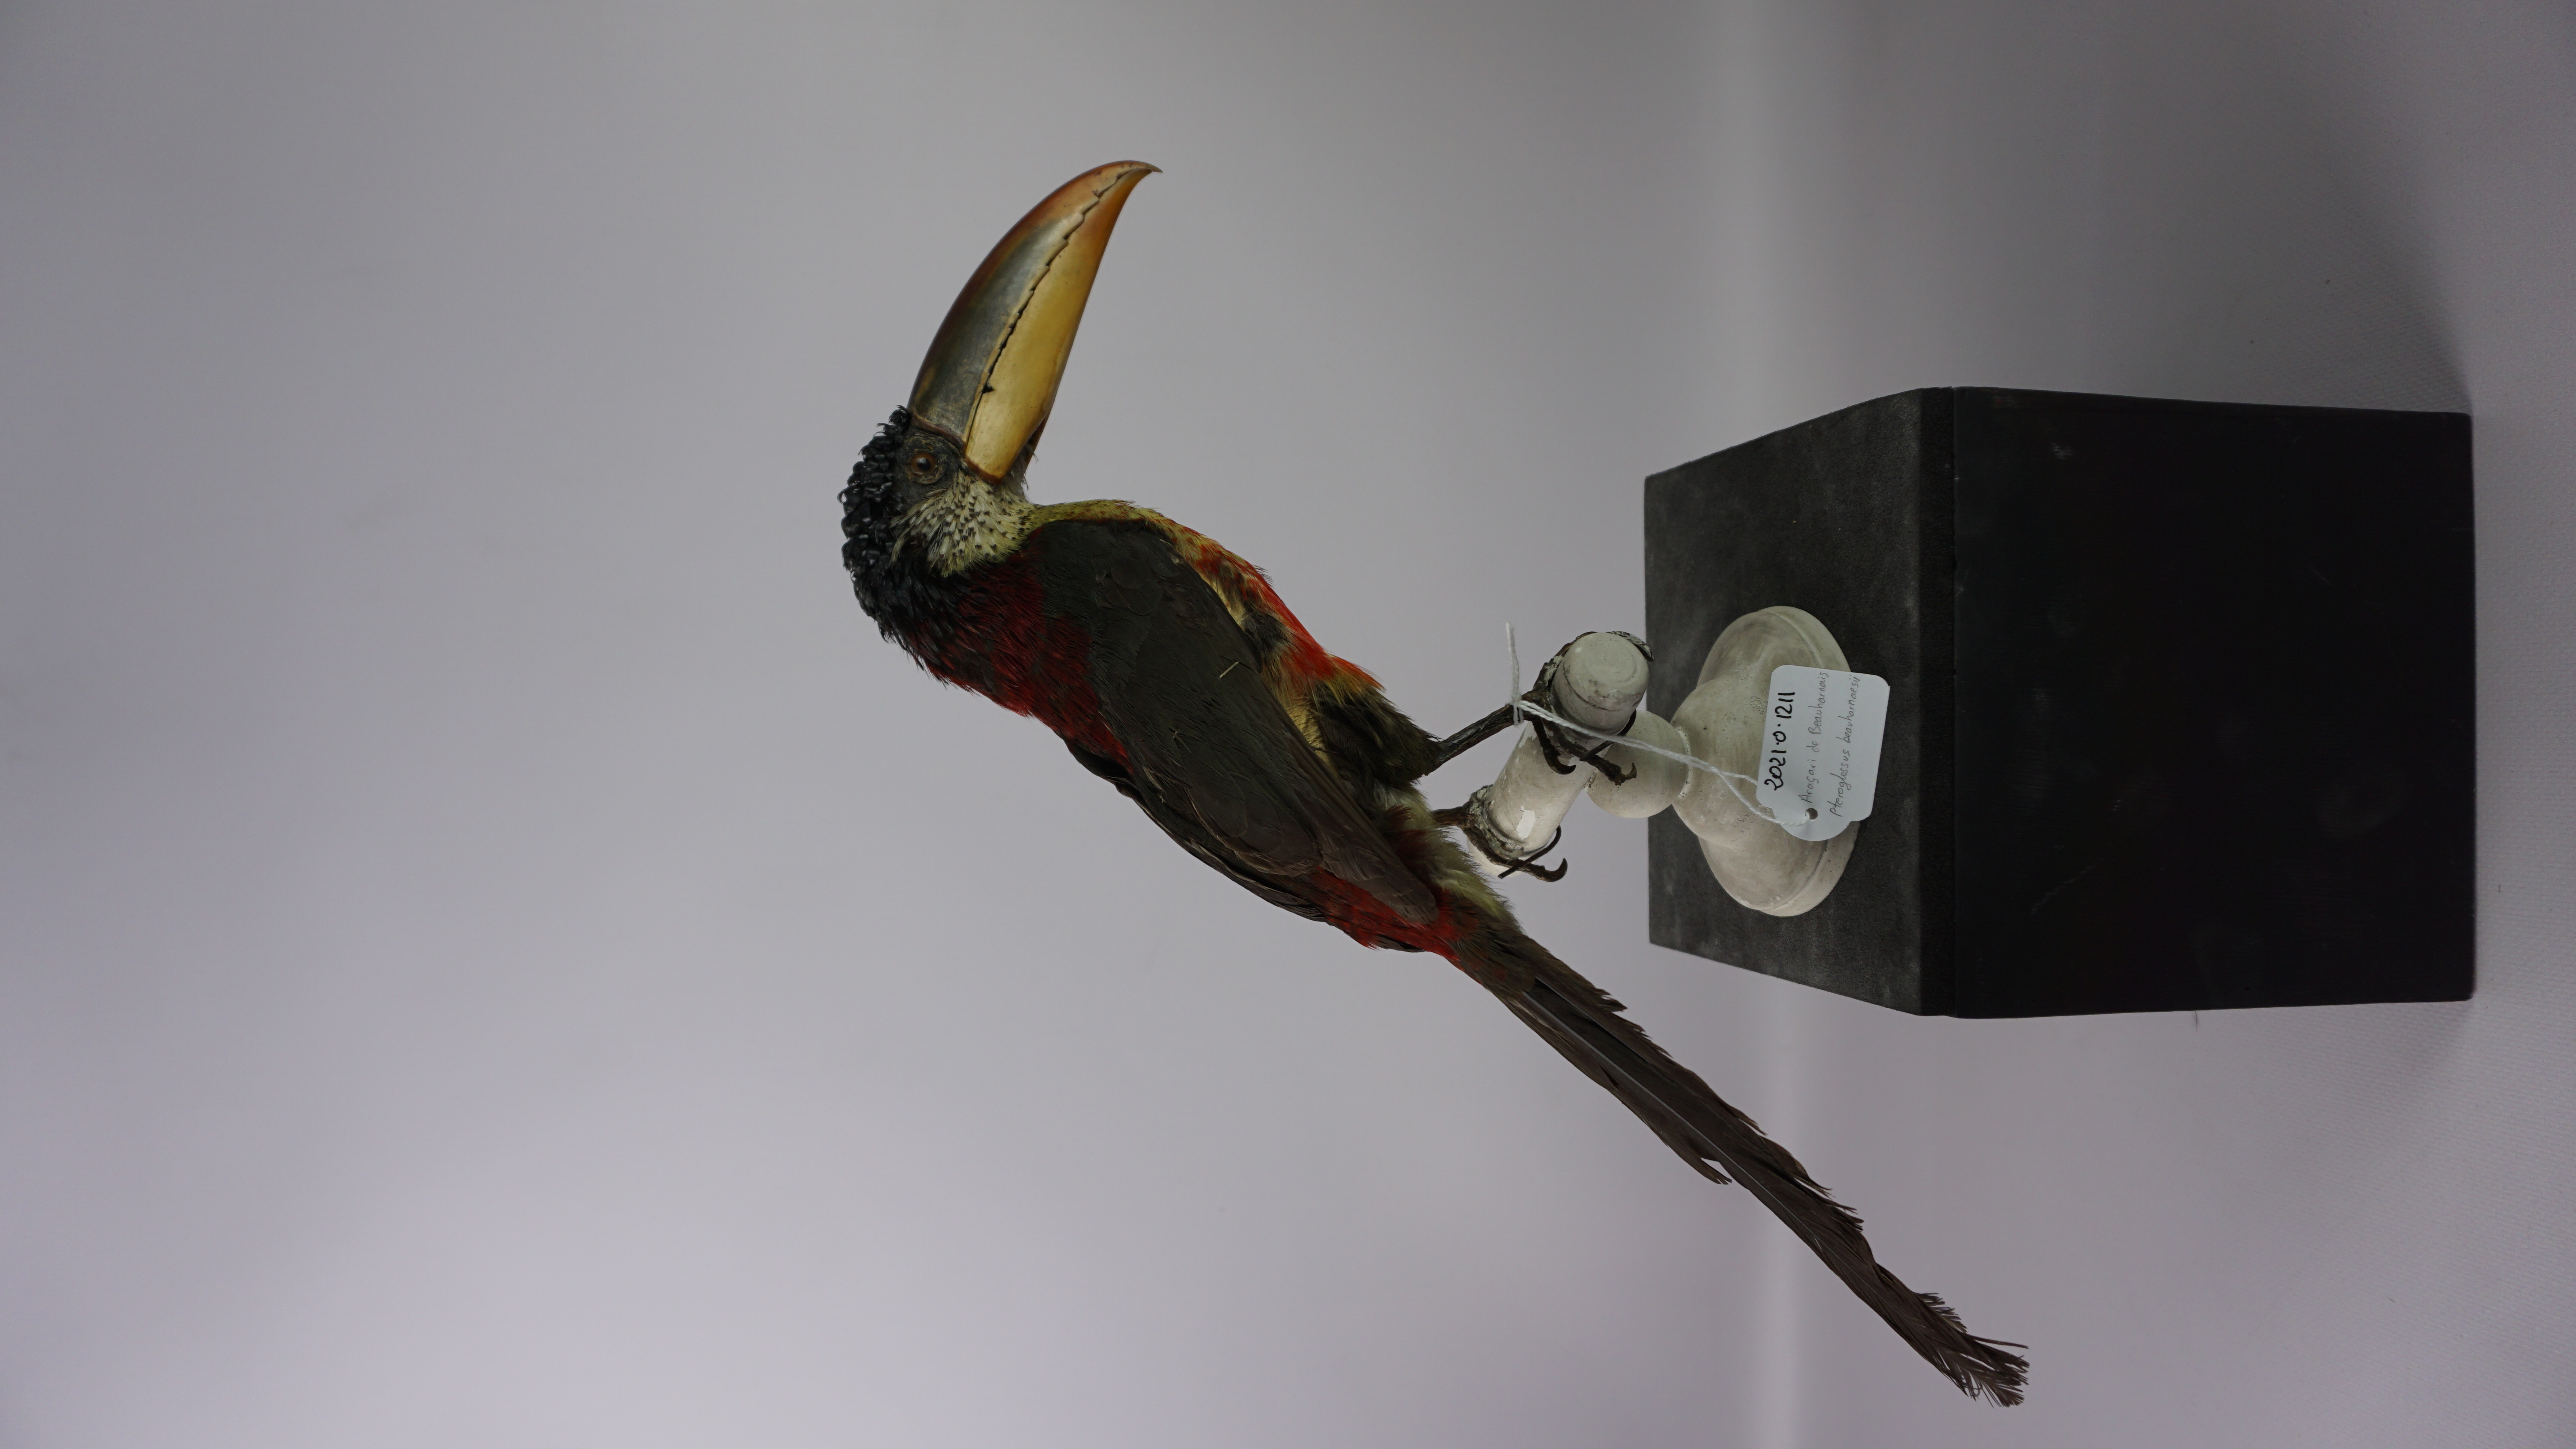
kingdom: Animalia
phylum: Chordata
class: Aves
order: Piciformes
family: Ramphastidae
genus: Pteroglossus
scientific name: Pteroglossus beauharnaesii
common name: Curl-crested aracari
